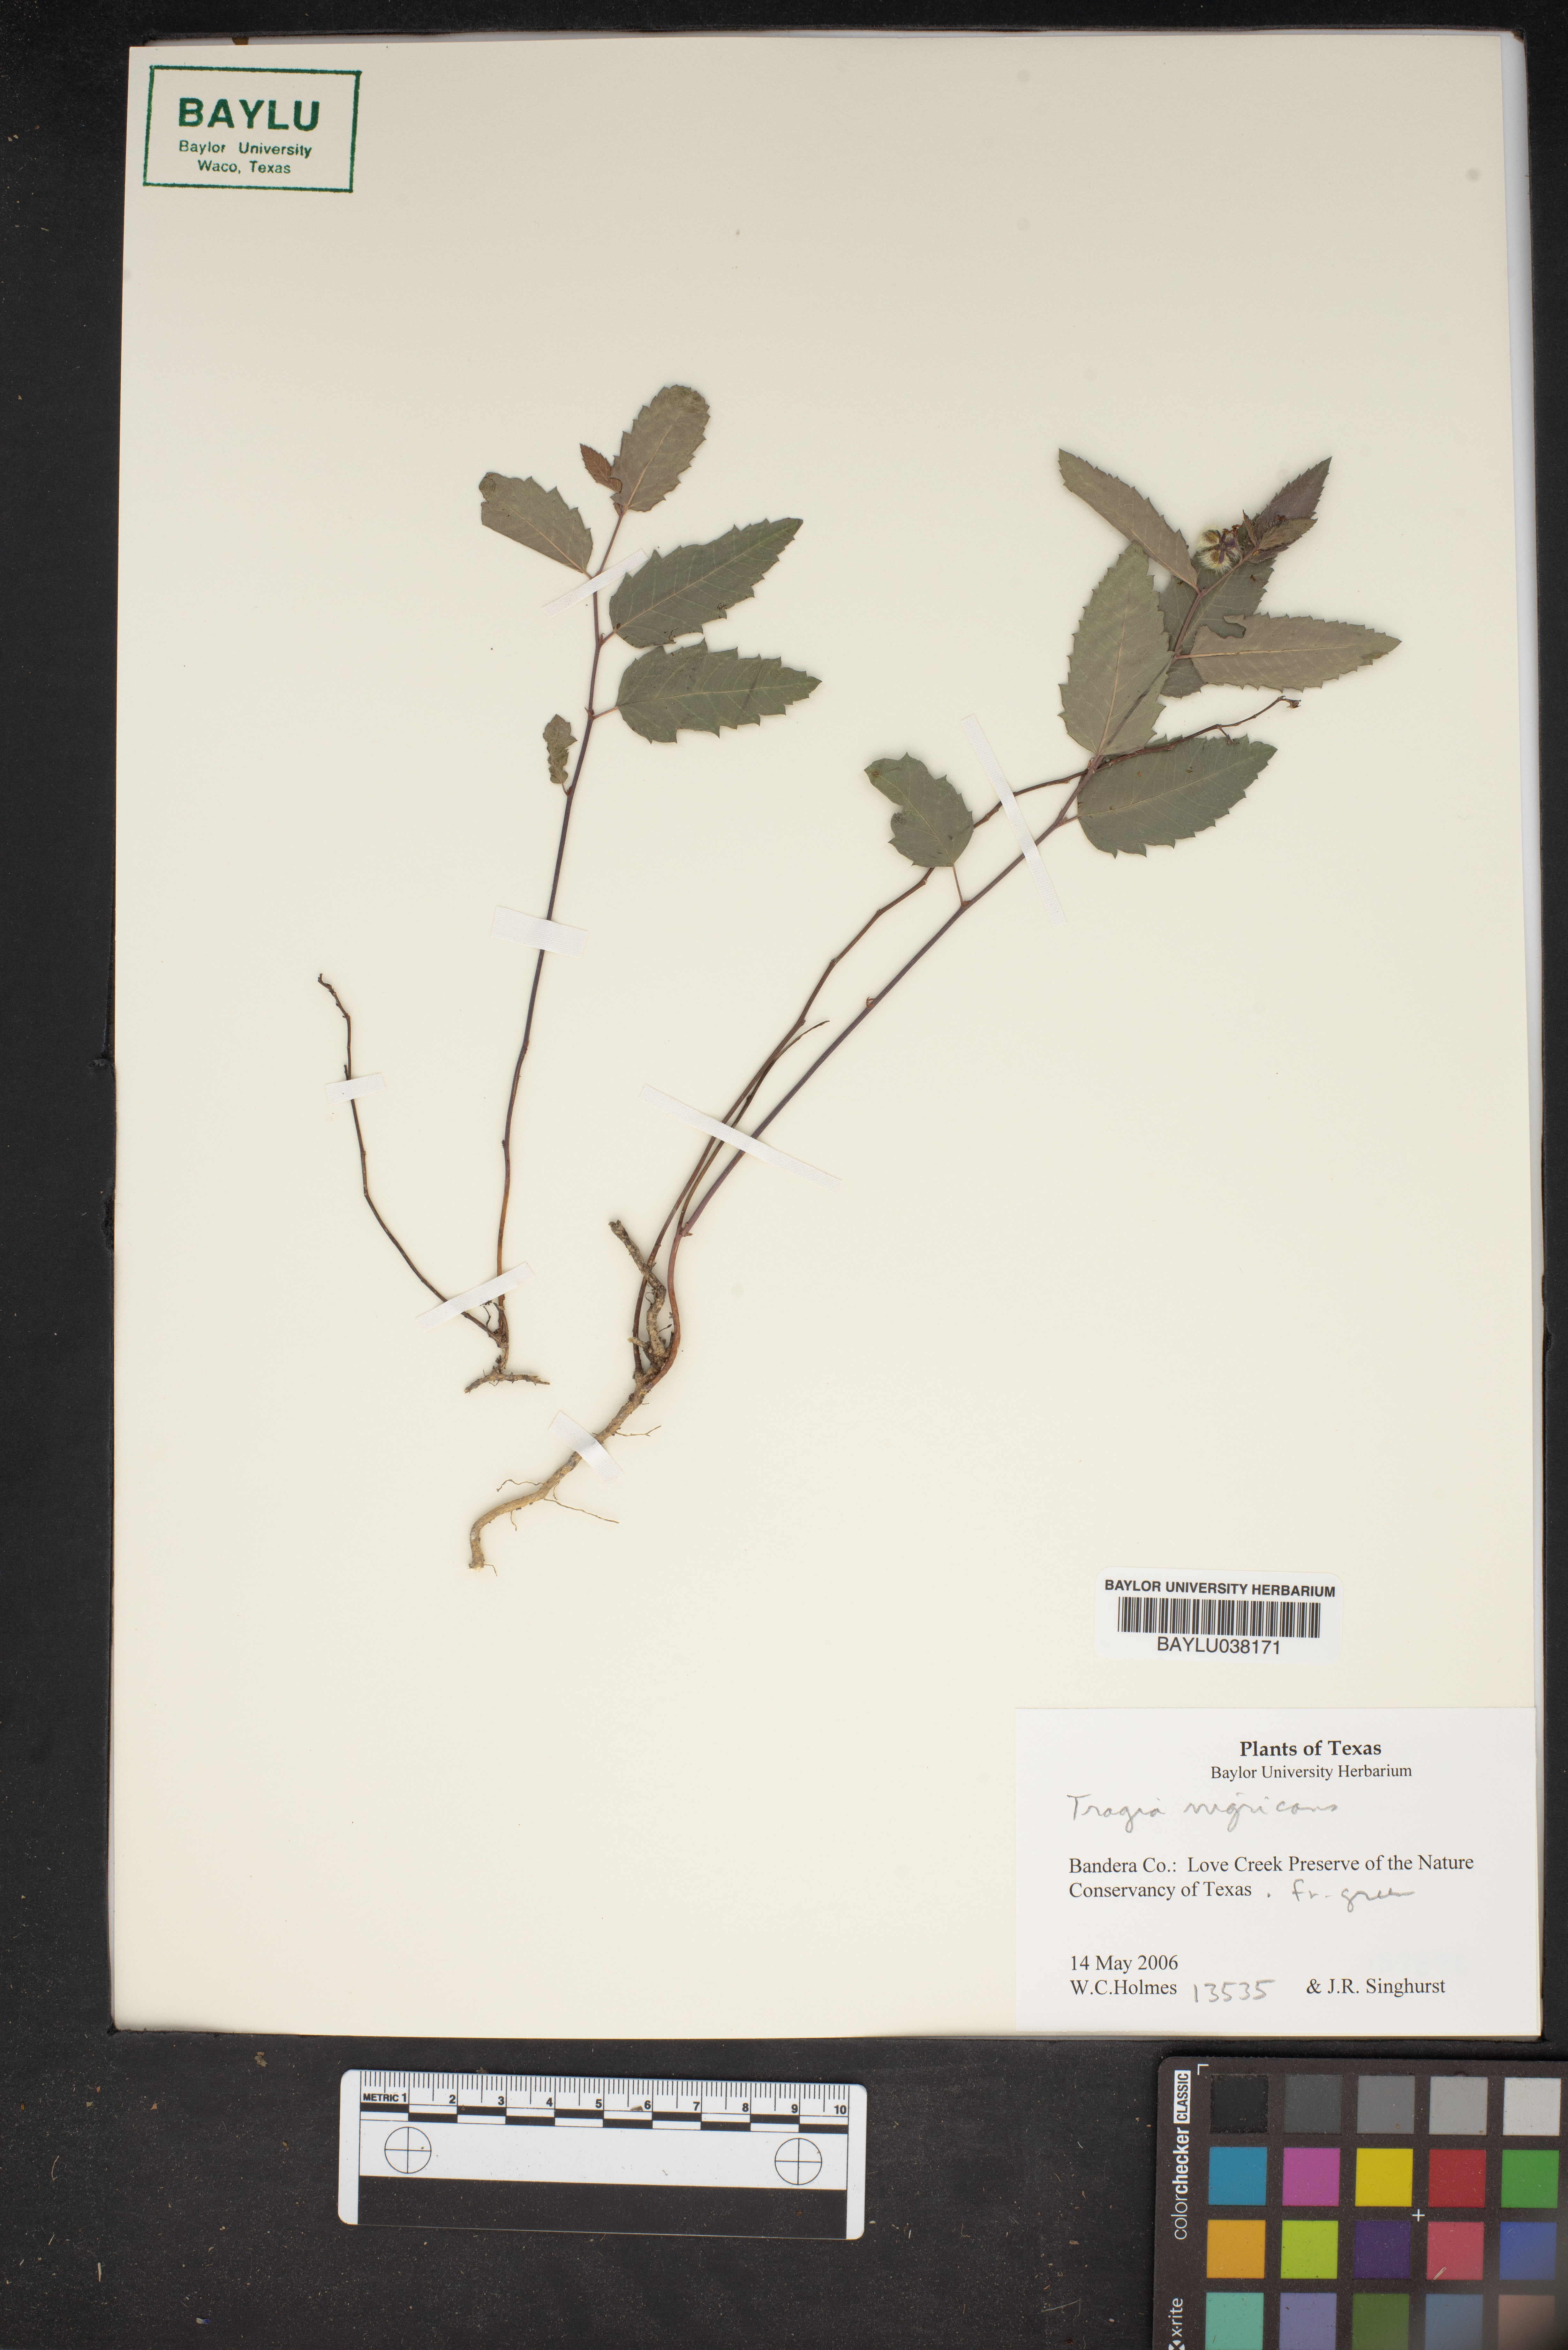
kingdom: Plantae
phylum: Tracheophyta
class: Magnoliopsida
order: Malpighiales
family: Euphorbiaceae
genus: Tragia
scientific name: Tragia nigricans
